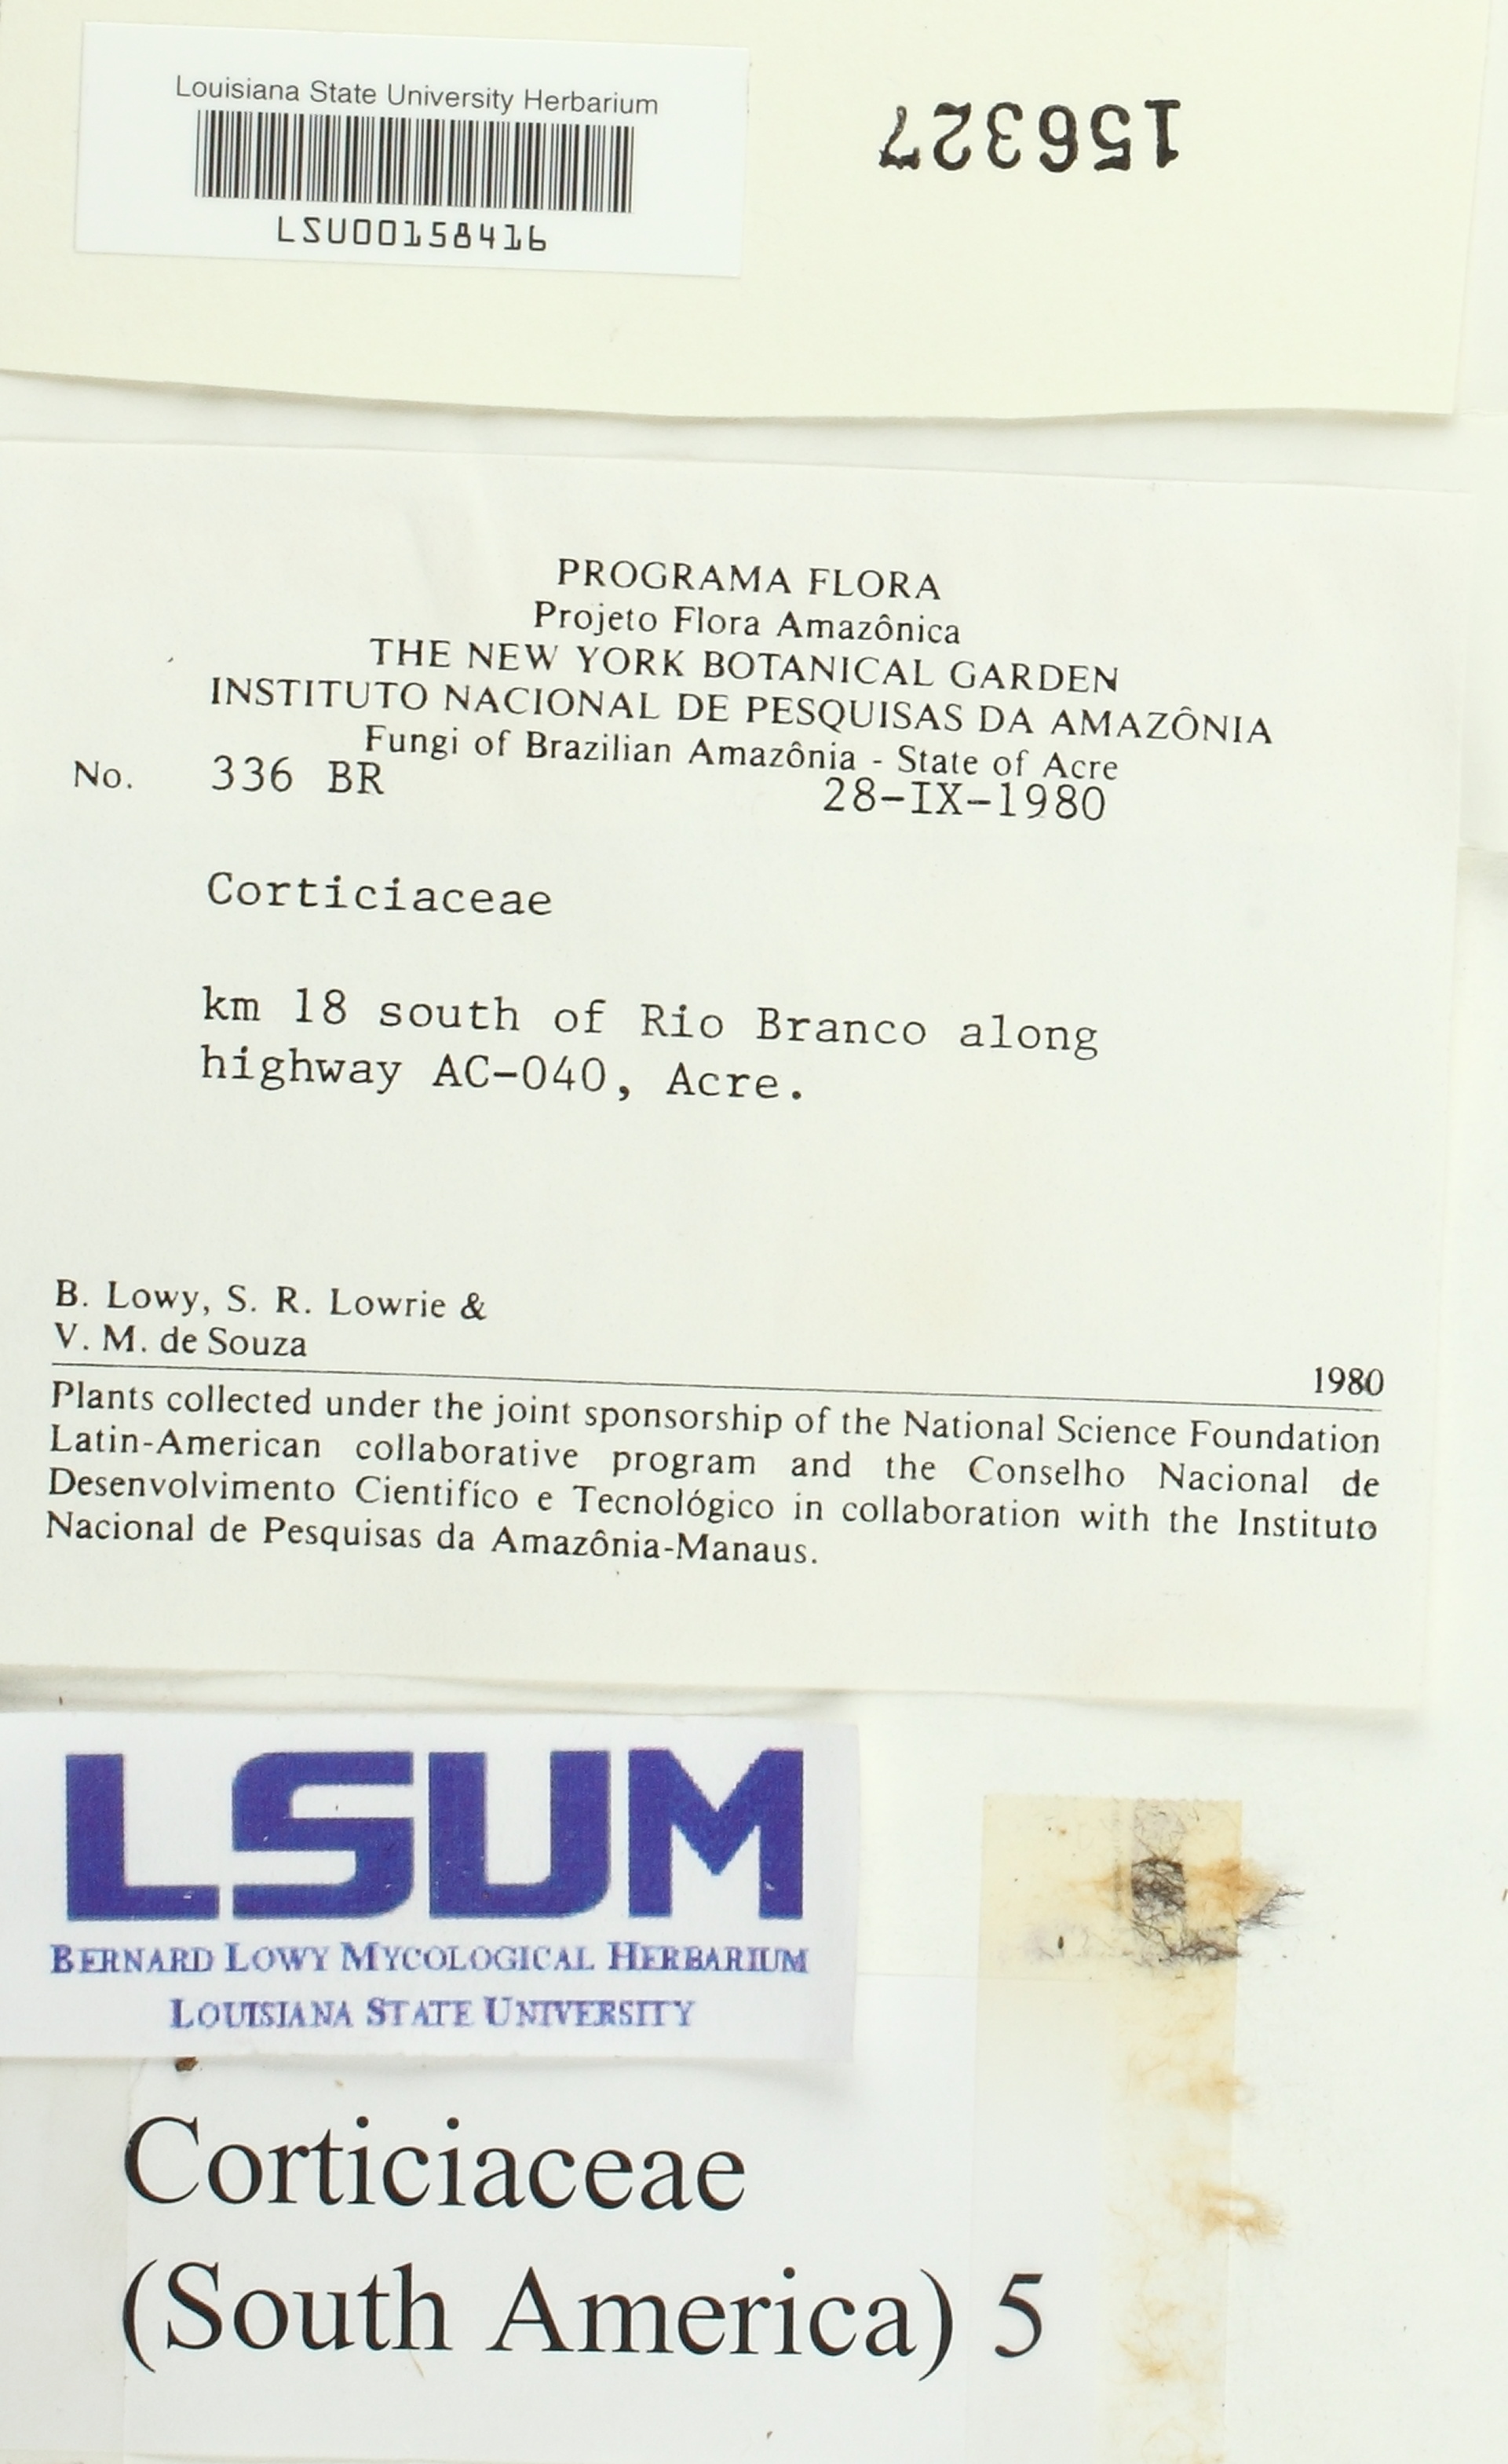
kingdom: Fungi
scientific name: Fungi
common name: Fungi
